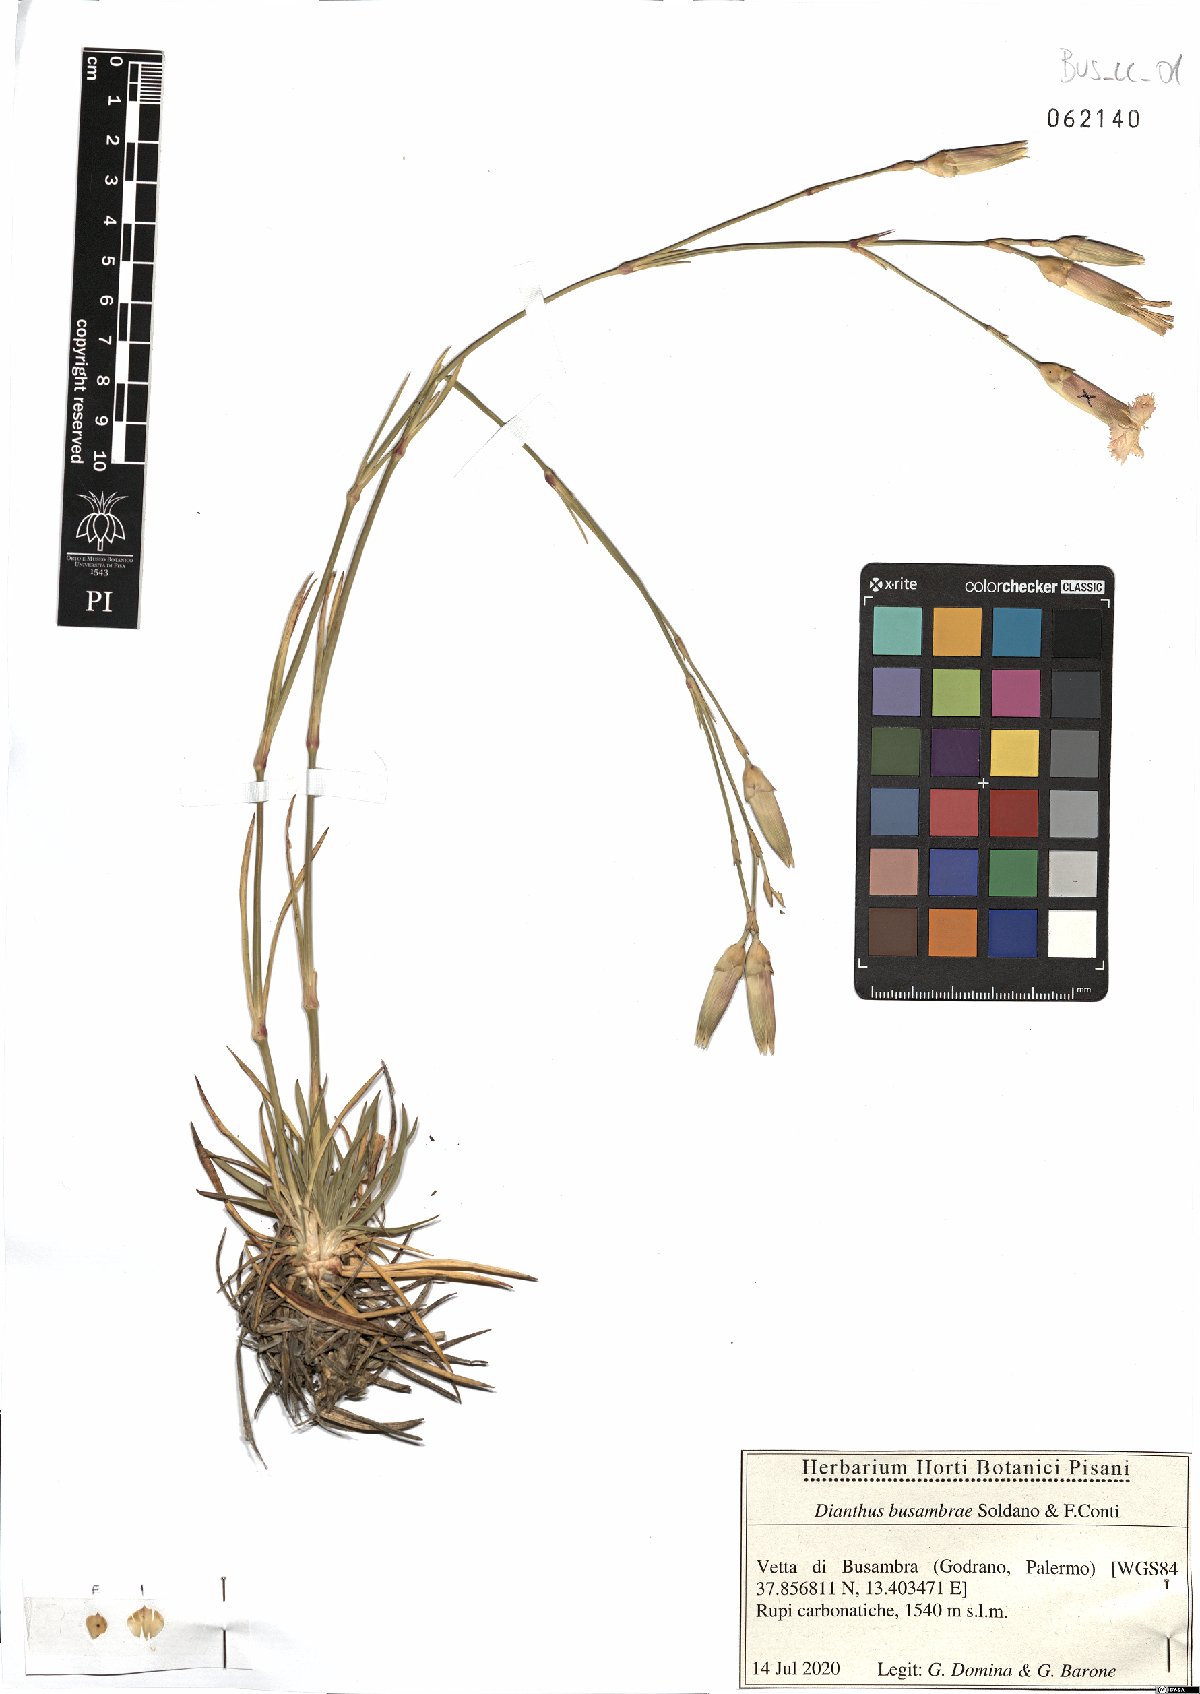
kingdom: Plantae
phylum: Tracheophyta
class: Magnoliopsida
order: Caryophyllales
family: Caryophyllaceae
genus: Dianthus
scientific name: Dianthus busambrae
